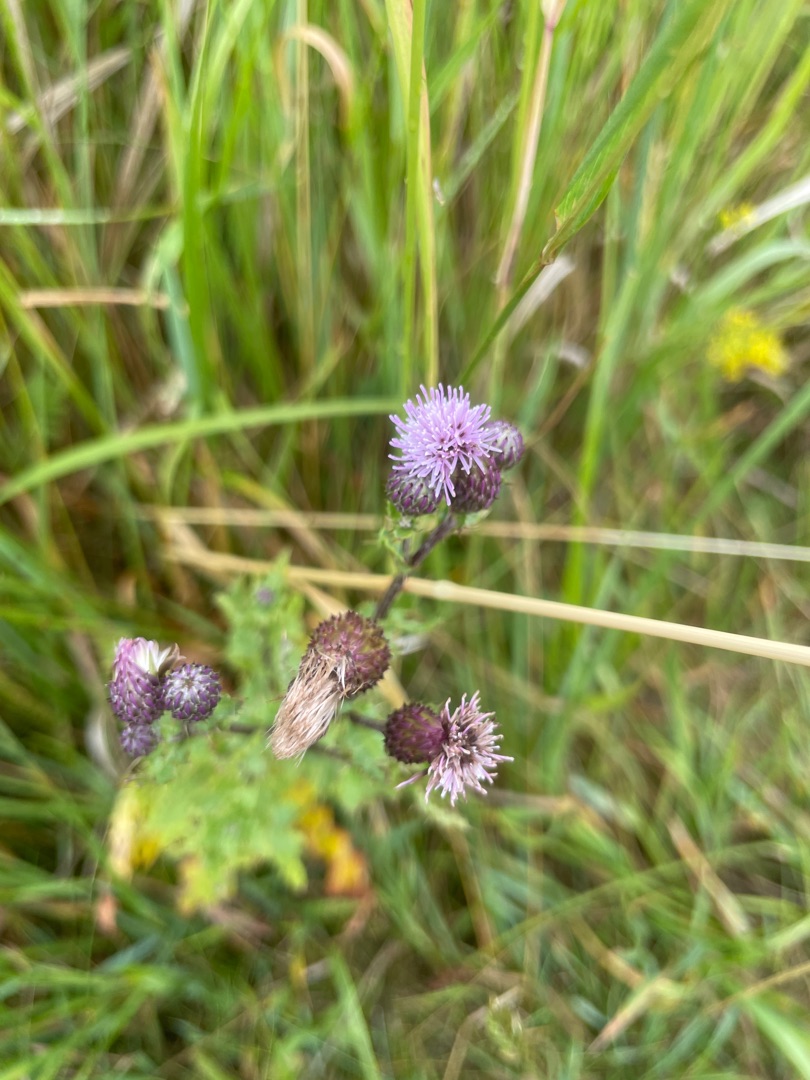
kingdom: Plantae
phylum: Tracheophyta
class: Magnoliopsida
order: Asterales
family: Asteraceae
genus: Cirsium
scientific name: Cirsium arvense
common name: Ager-tidsel
